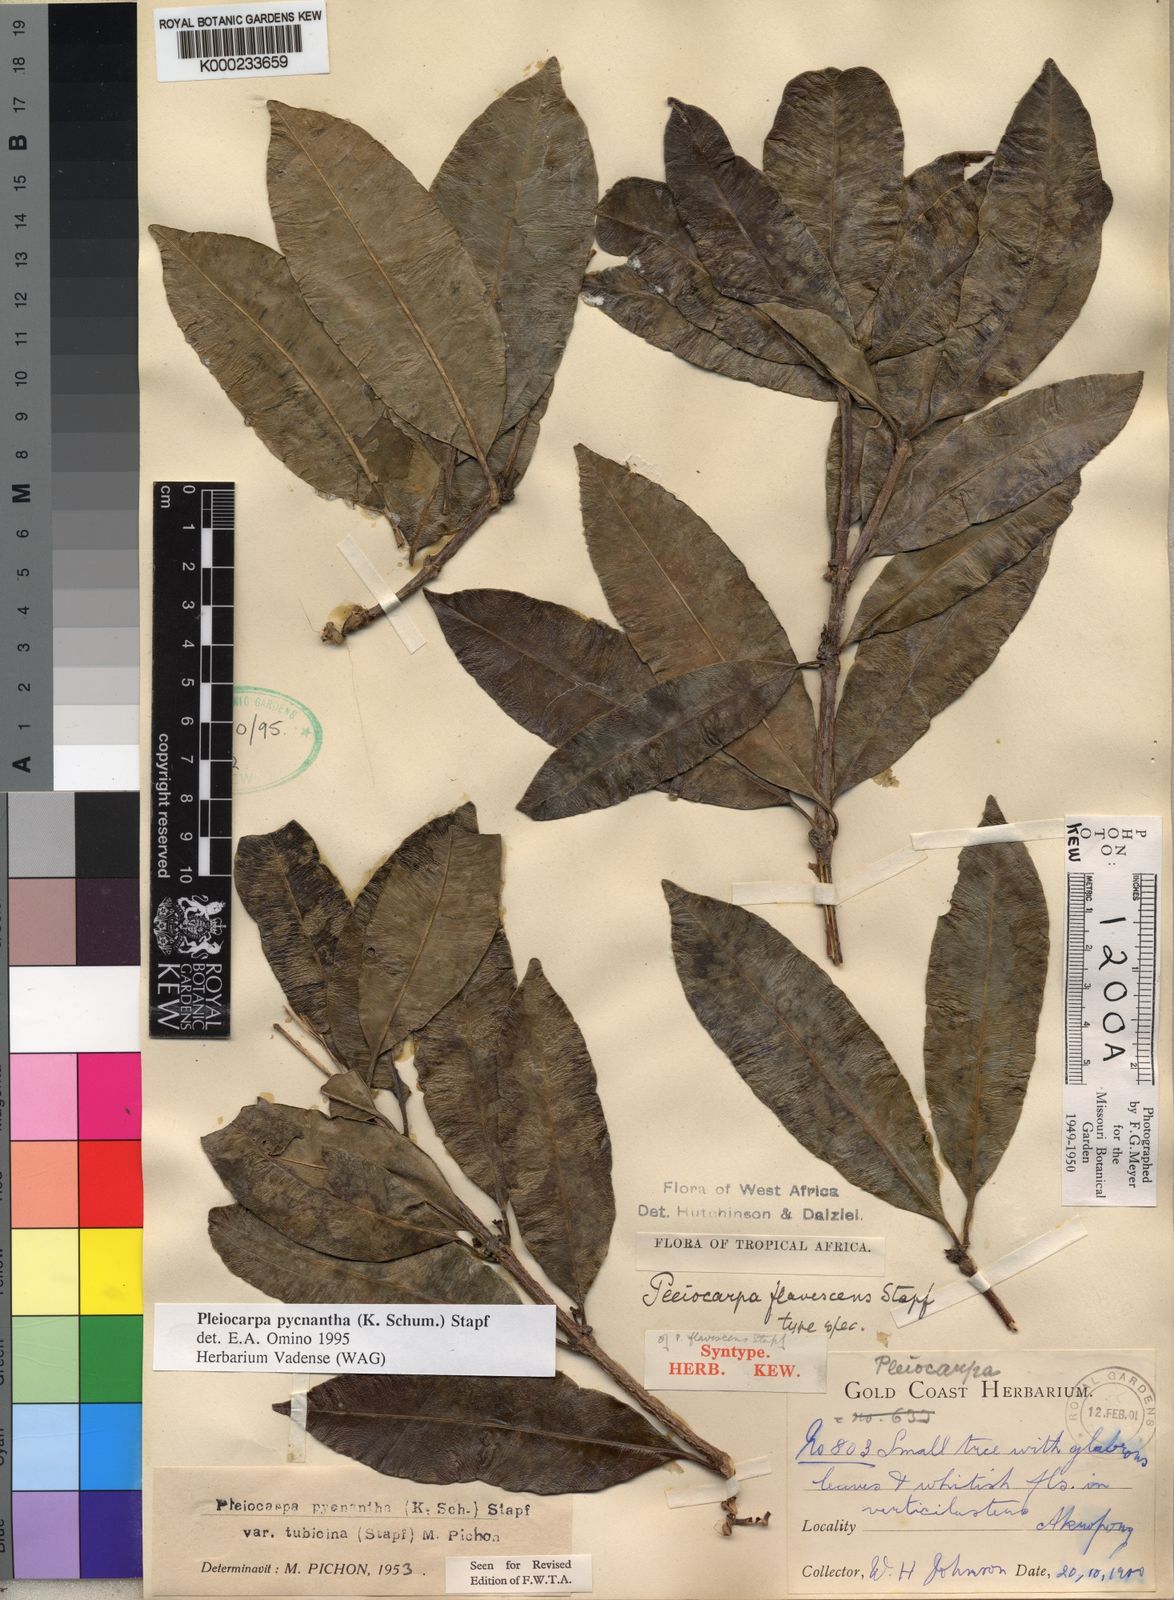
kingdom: Plantae
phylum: Tracheophyta
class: Magnoliopsida
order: Gentianales
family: Apocynaceae
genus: Pleiocarpa
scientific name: Pleiocarpa pycnantha
